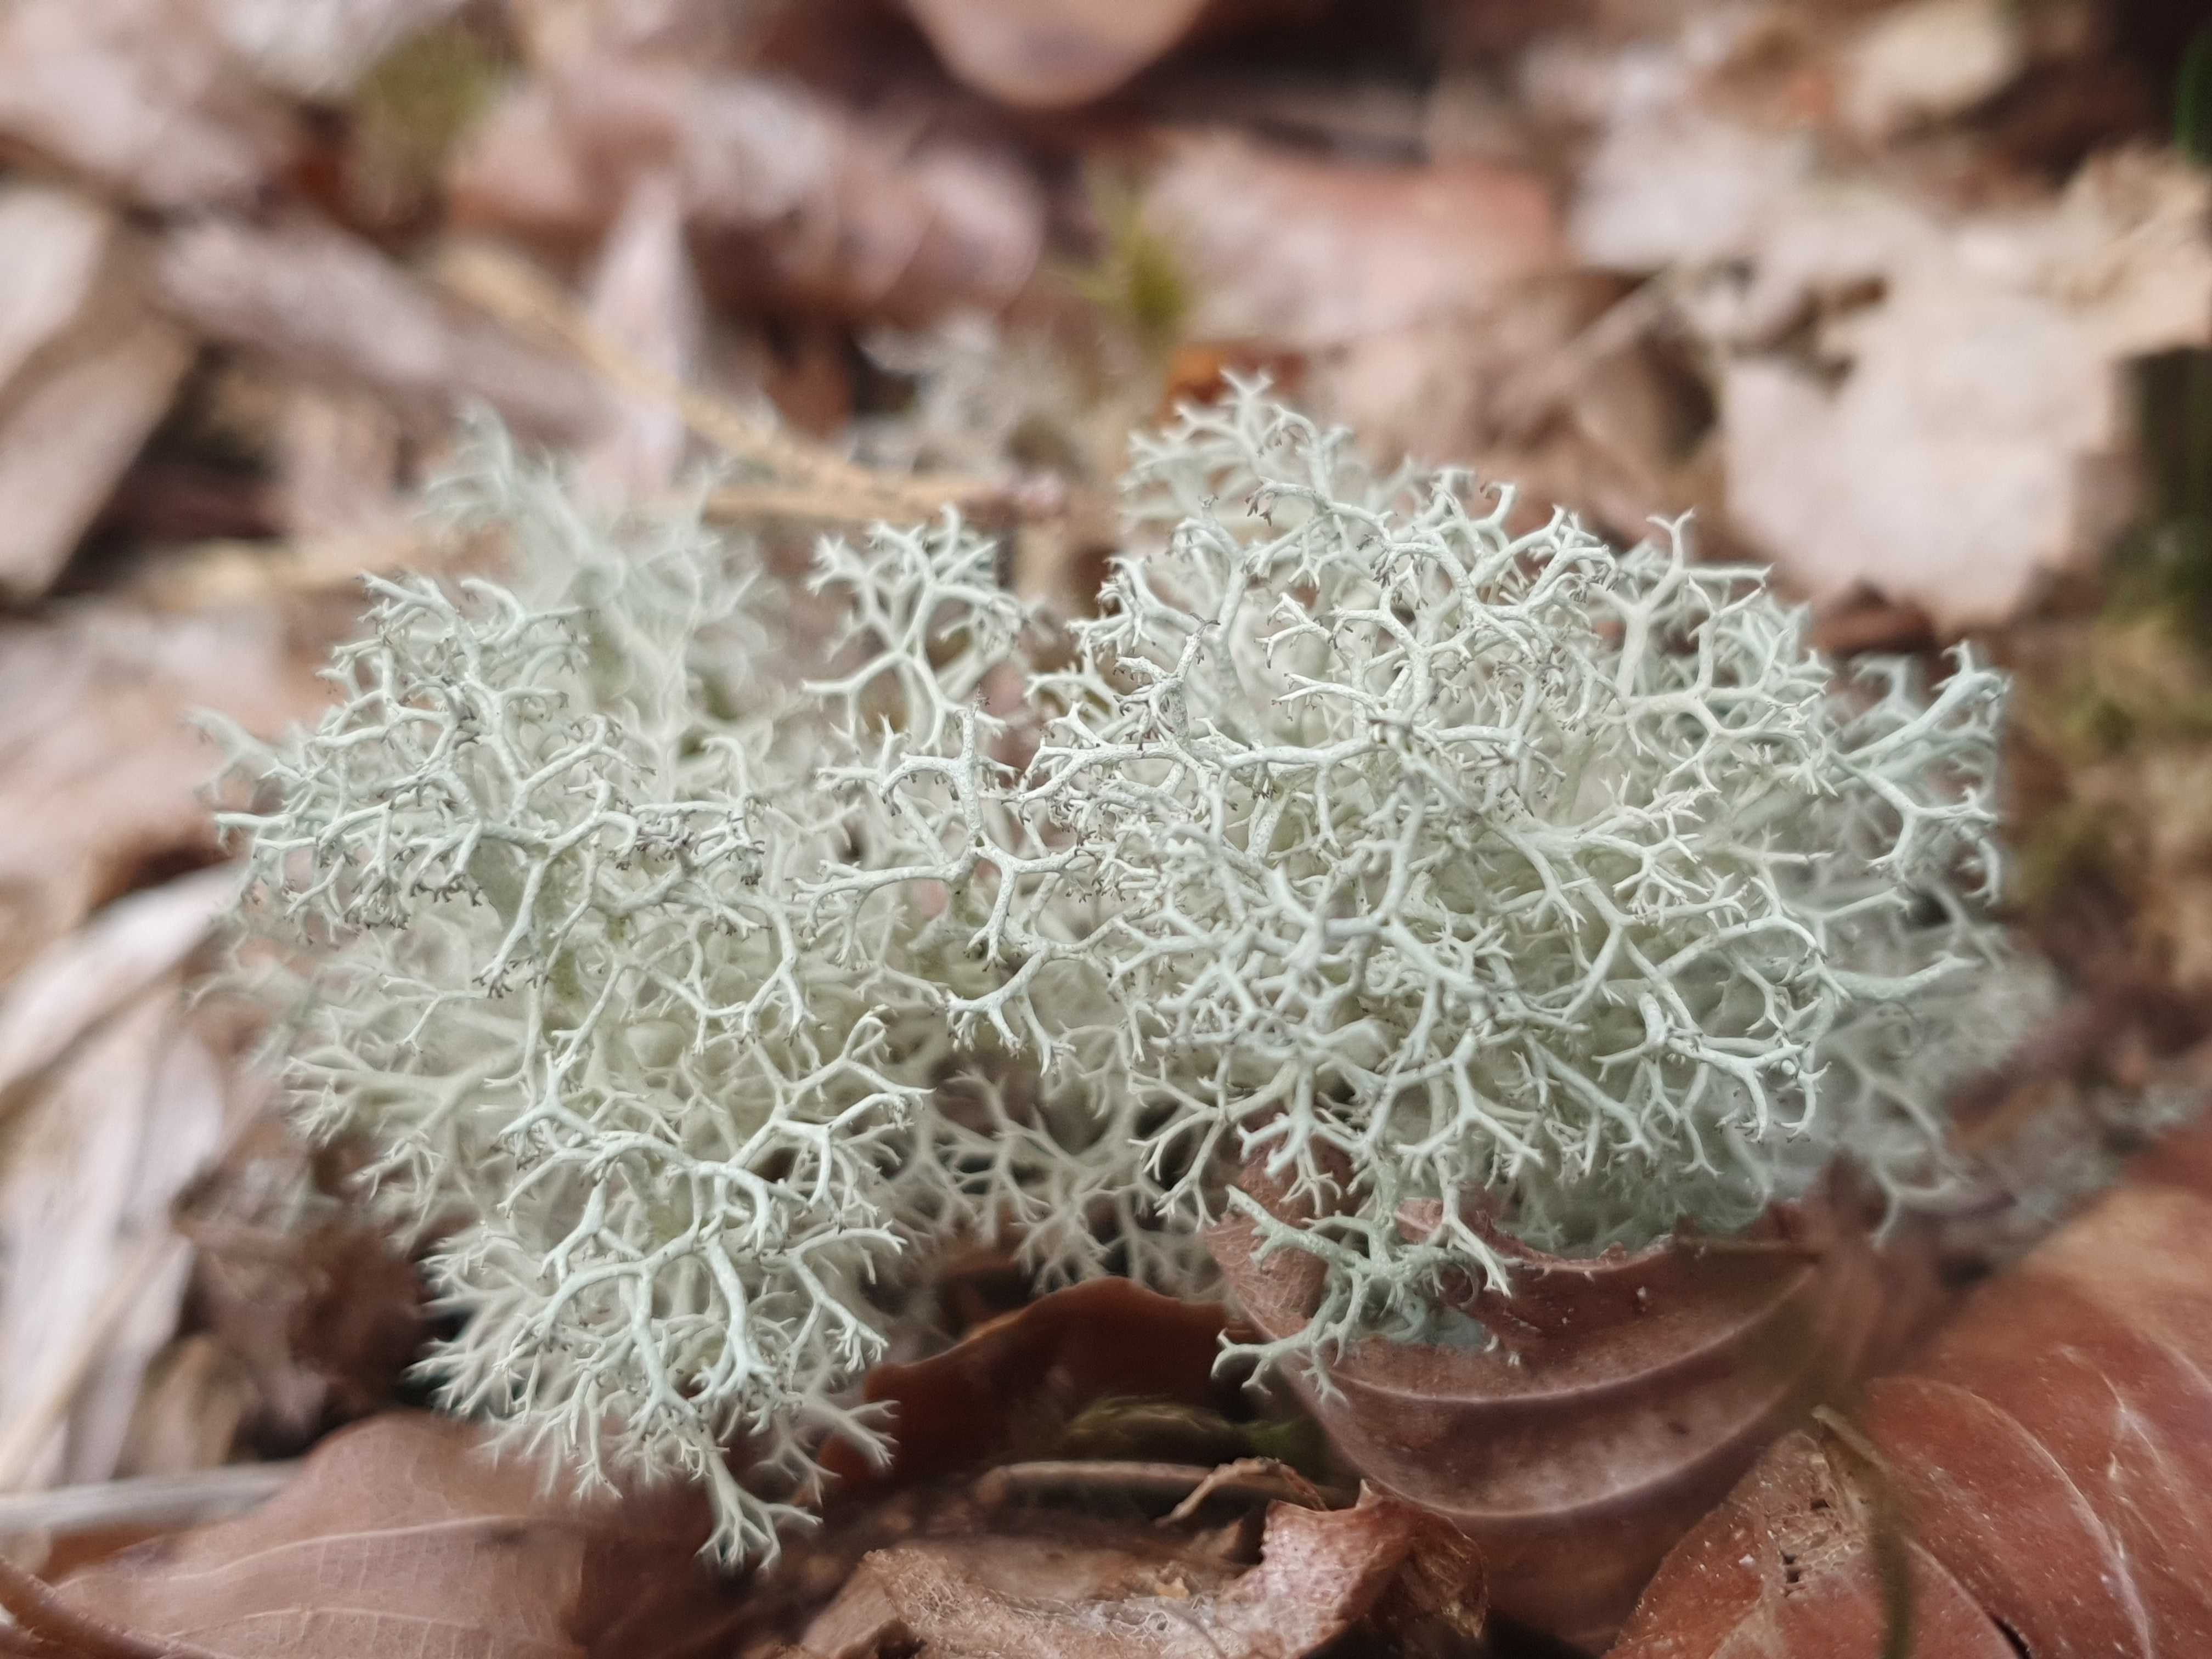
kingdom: Fungi
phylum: Ascomycota
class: Lecanoromycetes
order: Lecanorales
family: Cladoniaceae
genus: Cladonia
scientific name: Cladonia portentosa
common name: hede-rensdyrlav
